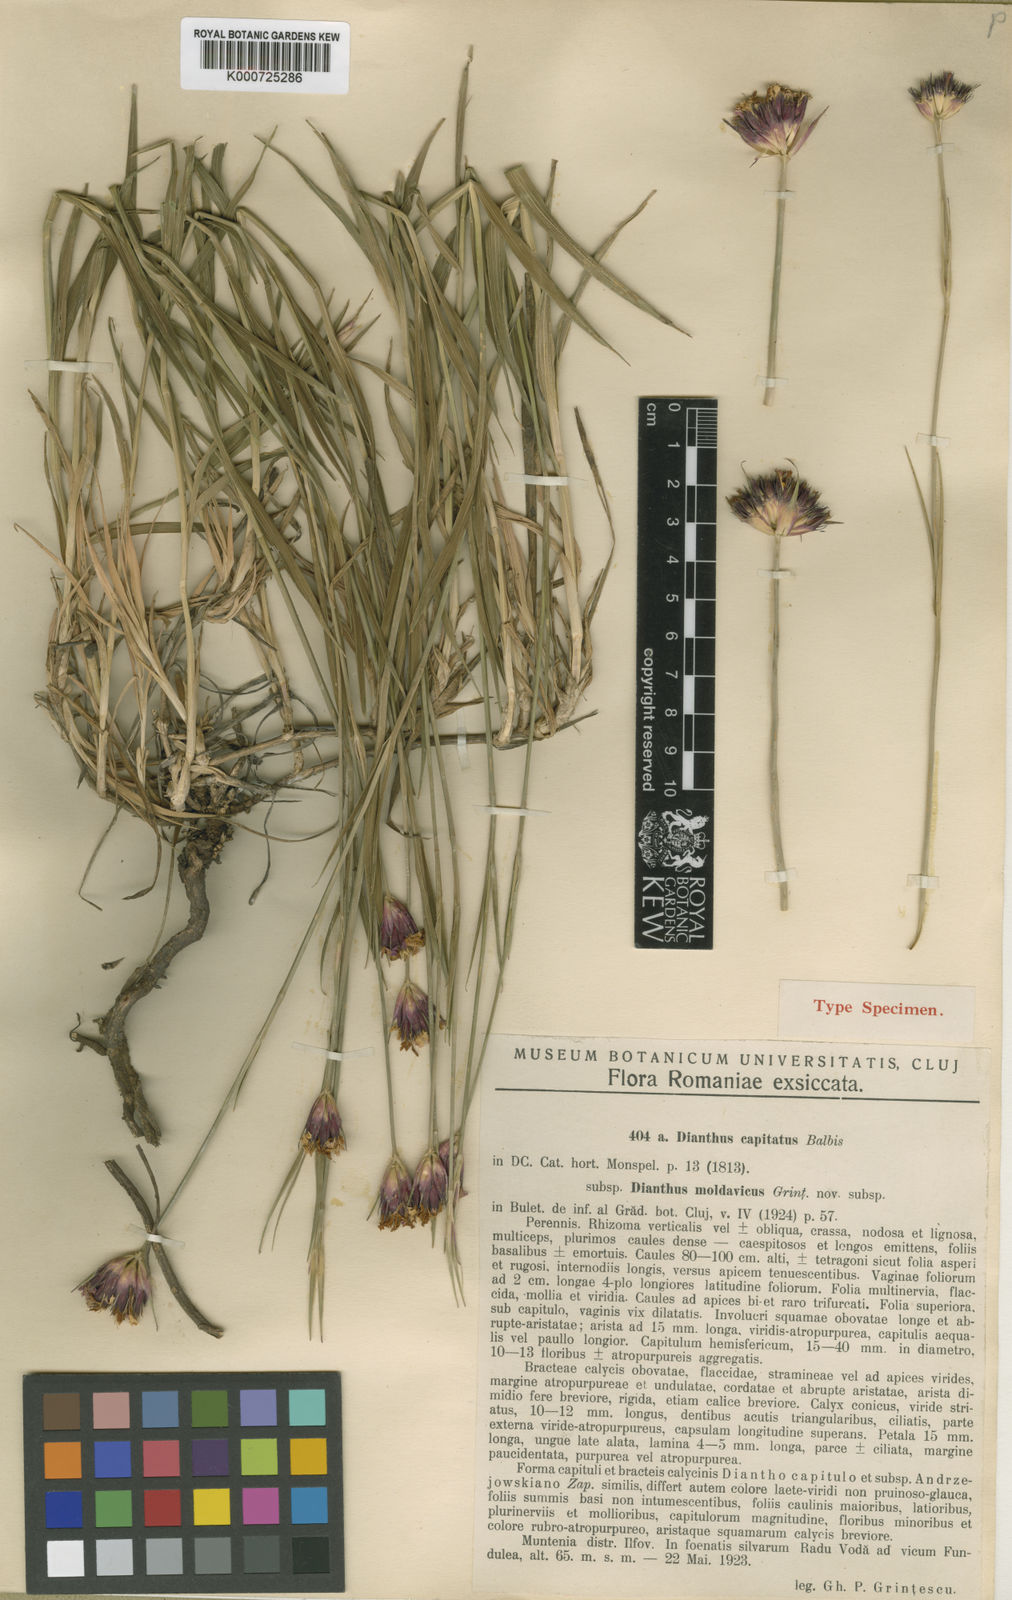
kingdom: Plantae
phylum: Tracheophyta
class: Magnoliopsida
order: Caryophyllales
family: Caryophyllaceae
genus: Dianthus
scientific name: Dianthus
